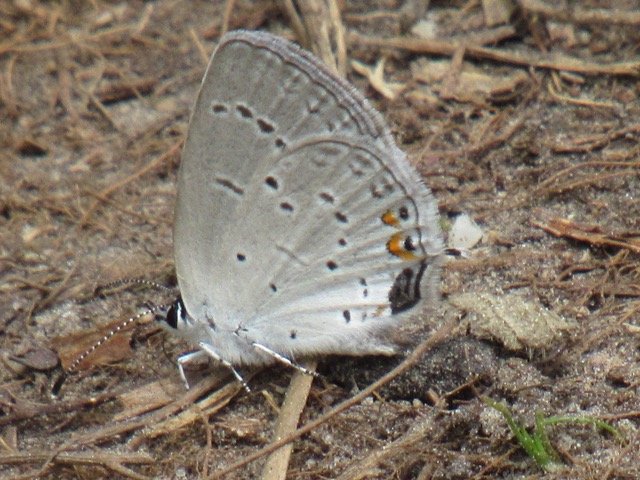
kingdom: Animalia
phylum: Arthropoda
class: Insecta
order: Lepidoptera
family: Lycaenidae
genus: Elkalyce
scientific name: Elkalyce comyntas
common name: Eastern Tailed-Blue
